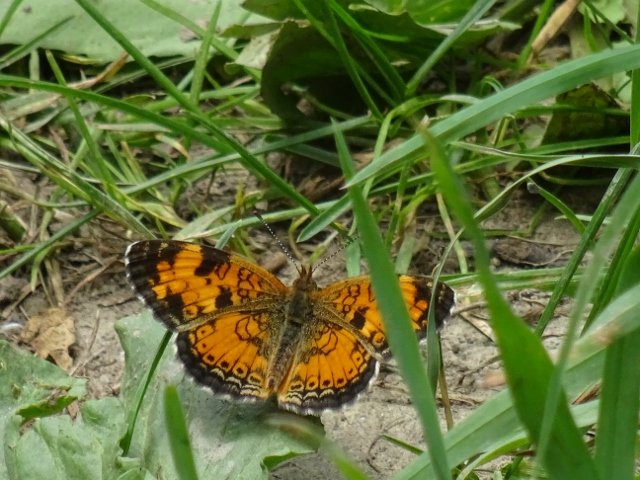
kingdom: Animalia
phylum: Arthropoda
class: Insecta
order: Lepidoptera
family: Nymphalidae
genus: Phyciodes
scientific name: Phyciodes tharos
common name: Pearl Crescent
